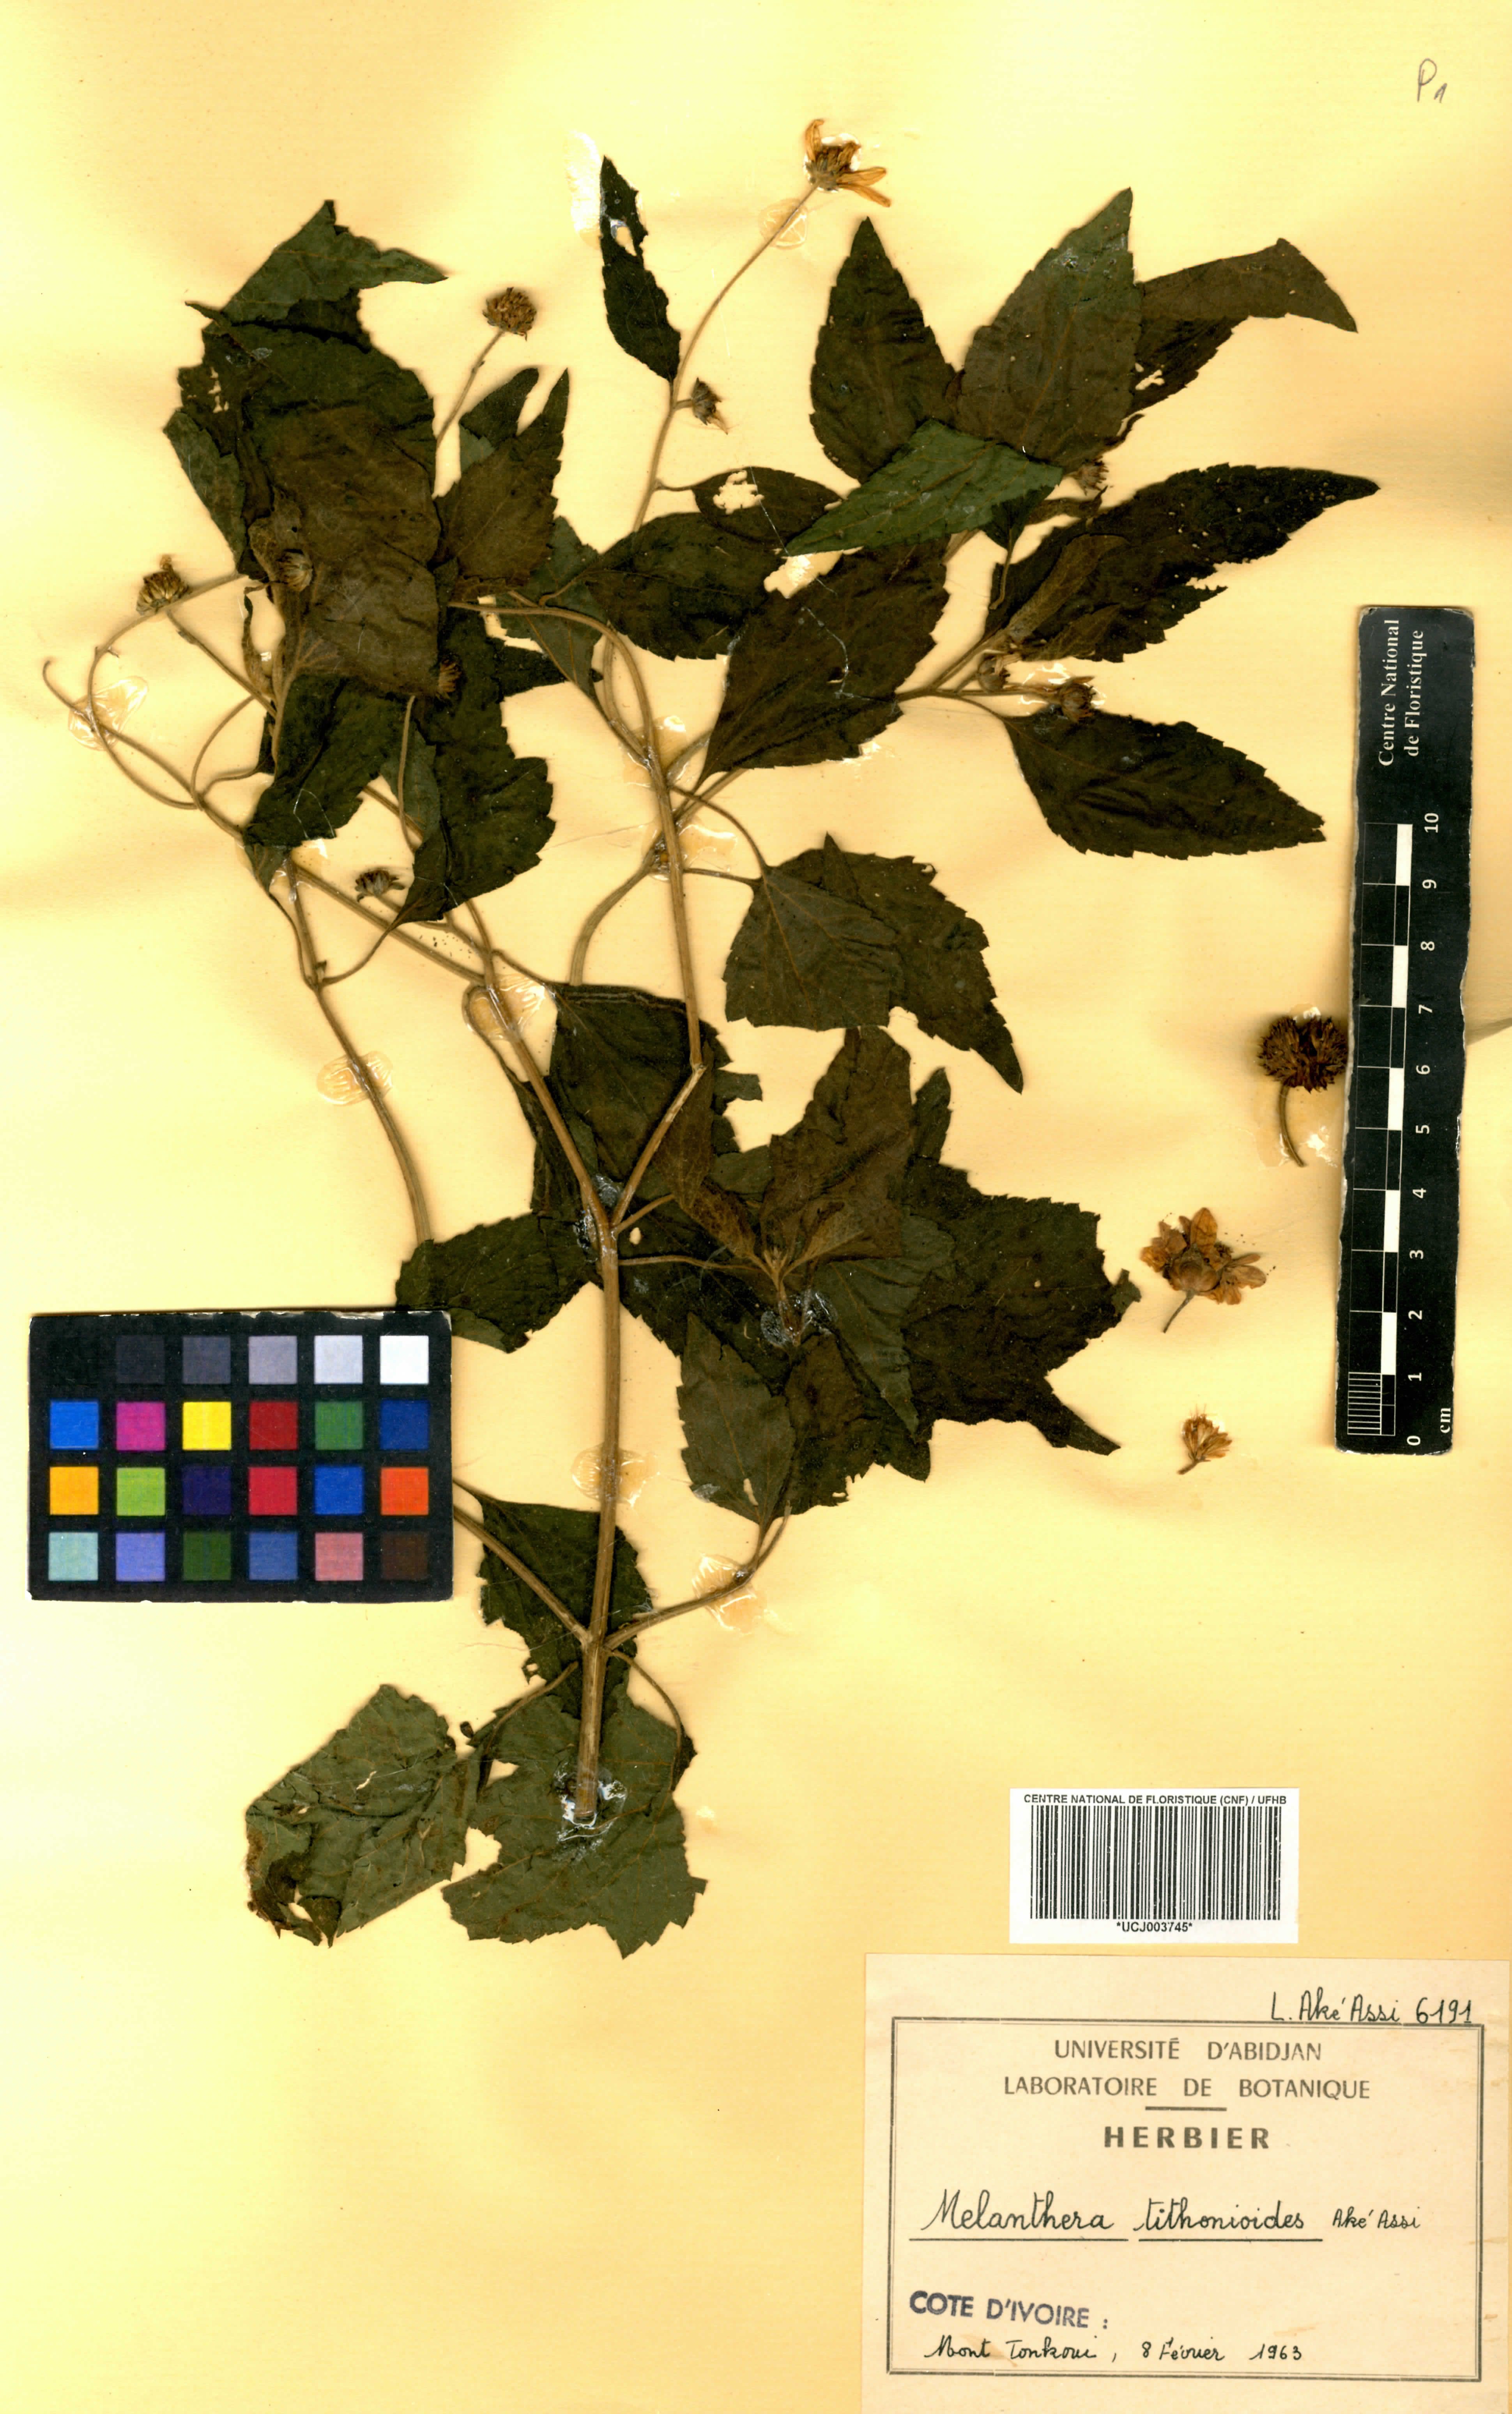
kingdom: Plantae
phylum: Tracheophyta
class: Magnoliopsida
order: Asterales
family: Asteraceae
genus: Lipotriche
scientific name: Lipotriche tithonioides
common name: Simandou daisy
